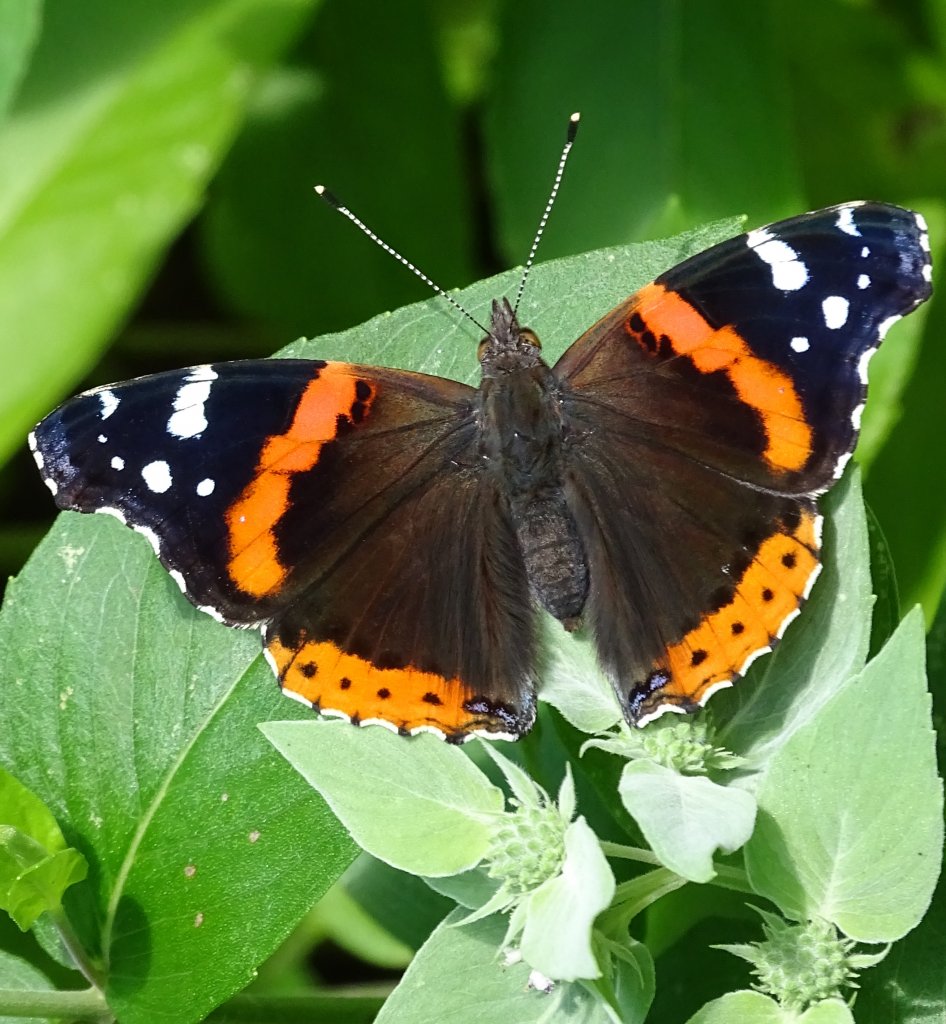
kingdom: Animalia
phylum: Arthropoda
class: Insecta
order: Lepidoptera
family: Nymphalidae
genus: Vanessa
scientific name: Vanessa atalanta
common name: Red Admiral
